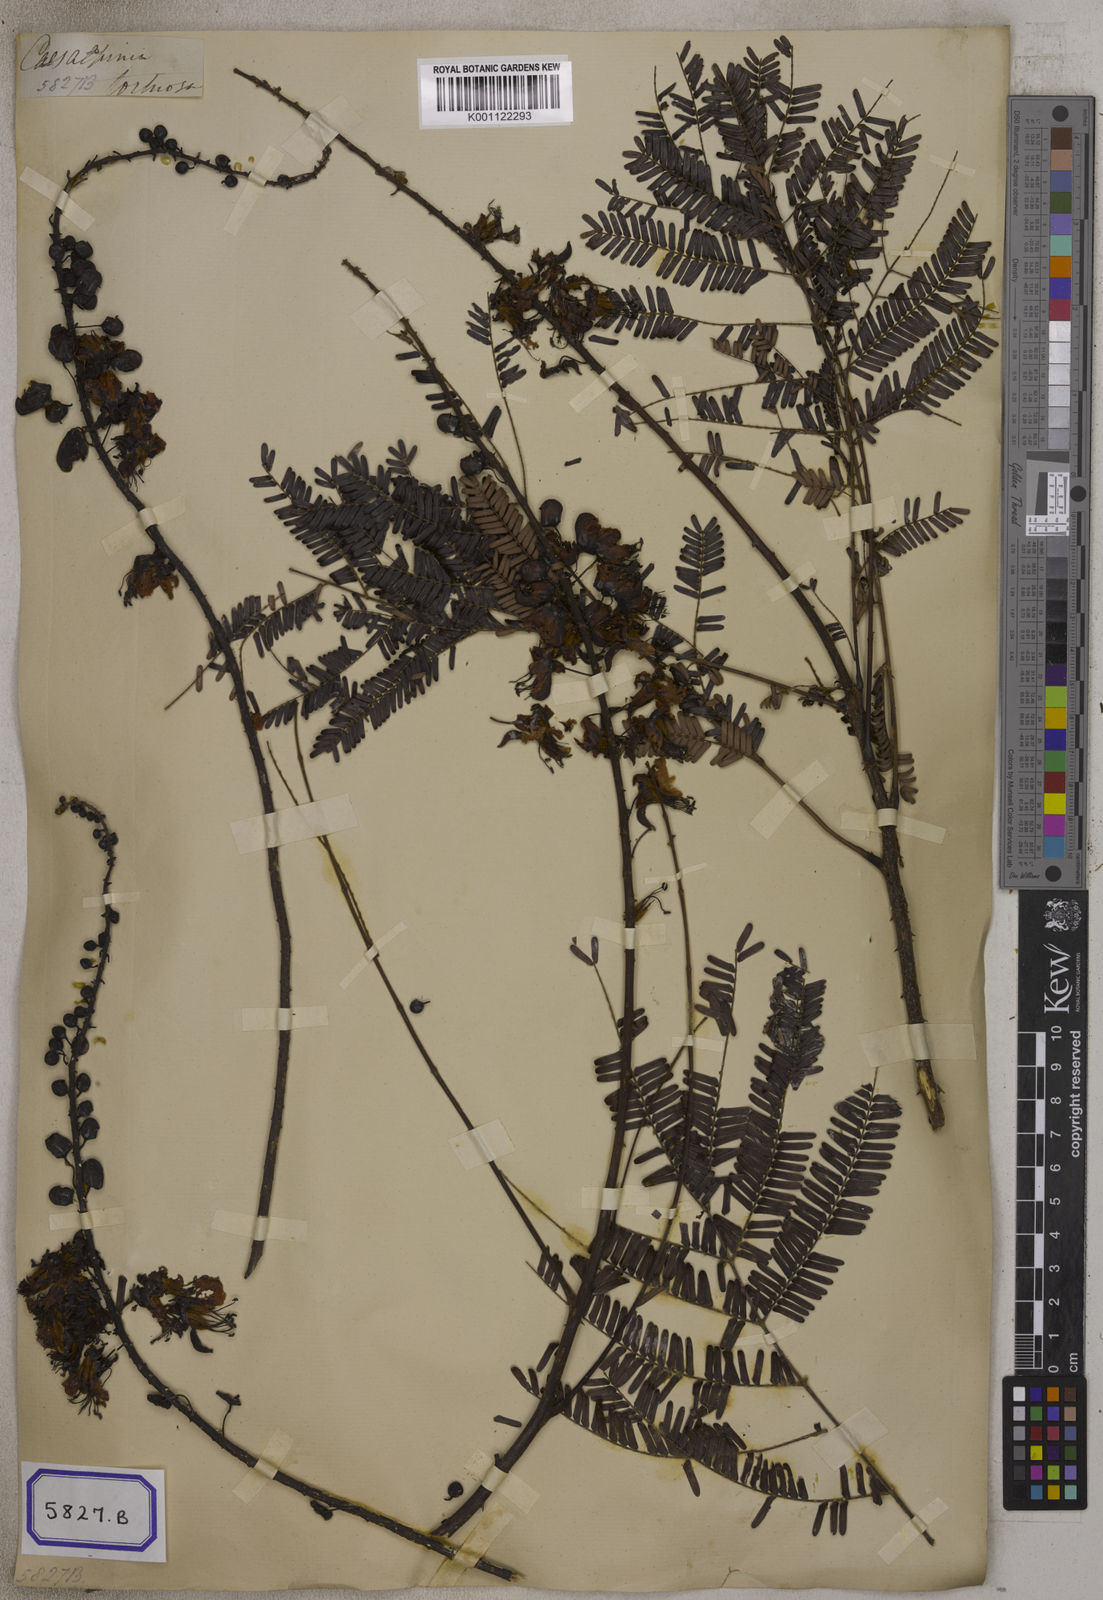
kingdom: Plantae
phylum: Tracheophyta
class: Magnoliopsida
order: Fabales
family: Fabaceae
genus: Caesalpinia
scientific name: Caesalpinia
